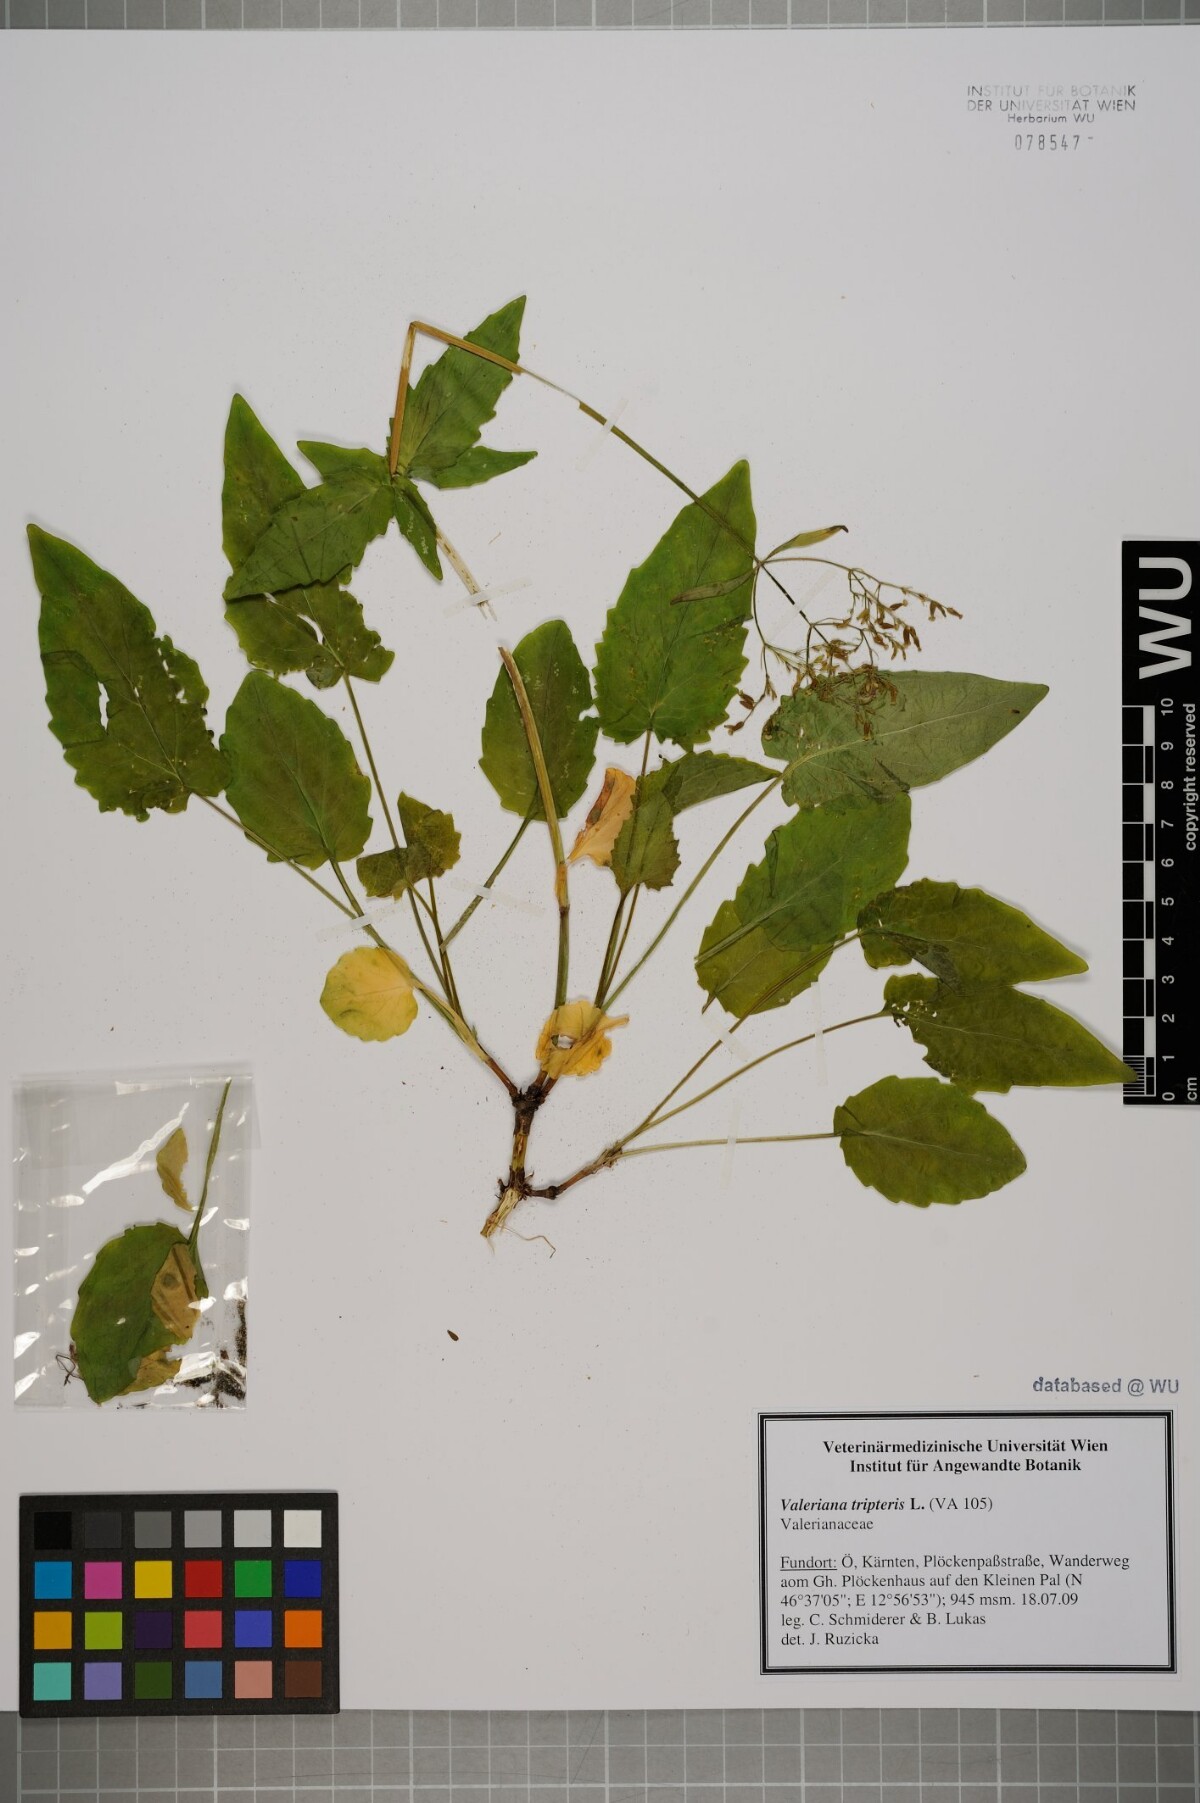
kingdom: Plantae
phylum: Tracheophyta
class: Magnoliopsida
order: Dipsacales
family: Caprifoliaceae
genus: Valeriana
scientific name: Valeriana tripteris
